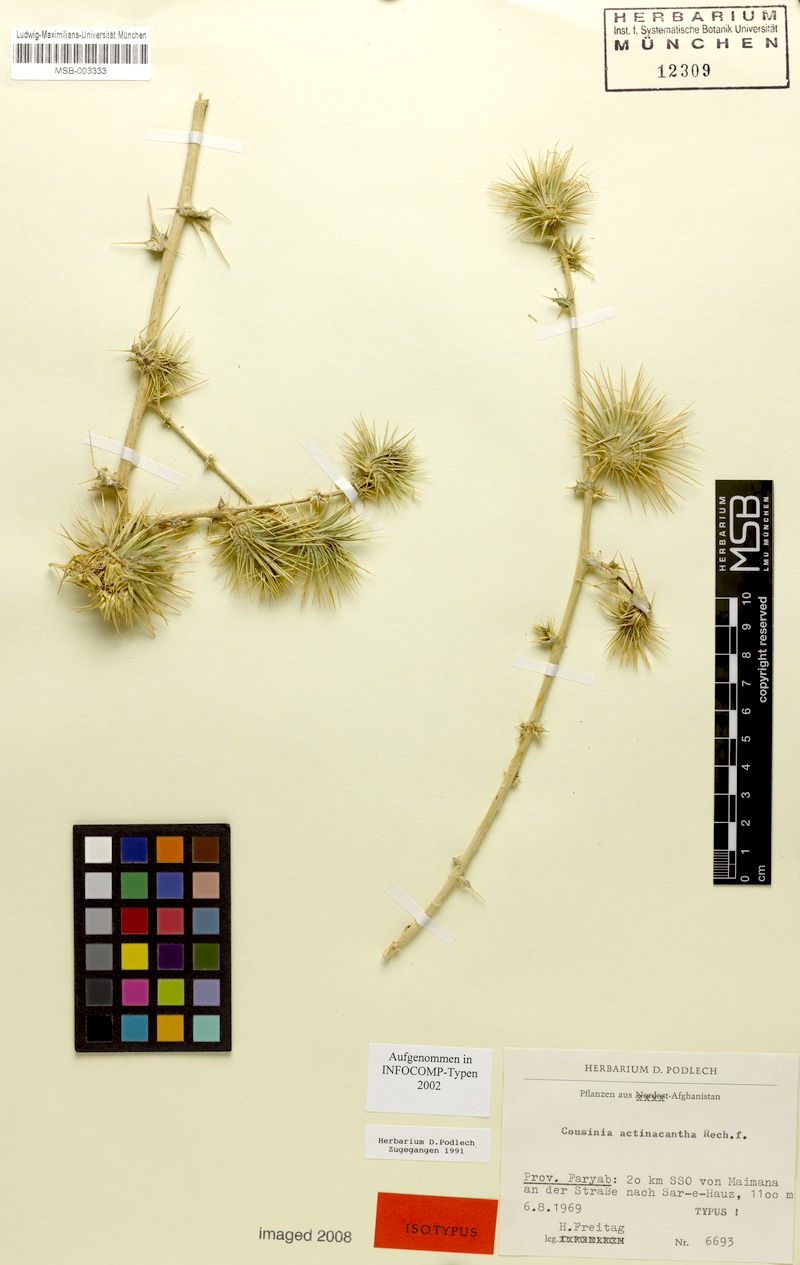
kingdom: Plantae
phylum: Tracheophyta
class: Magnoliopsida
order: Asterales
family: Asteraceae
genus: Cousinia
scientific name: Cousinia actinacantha
